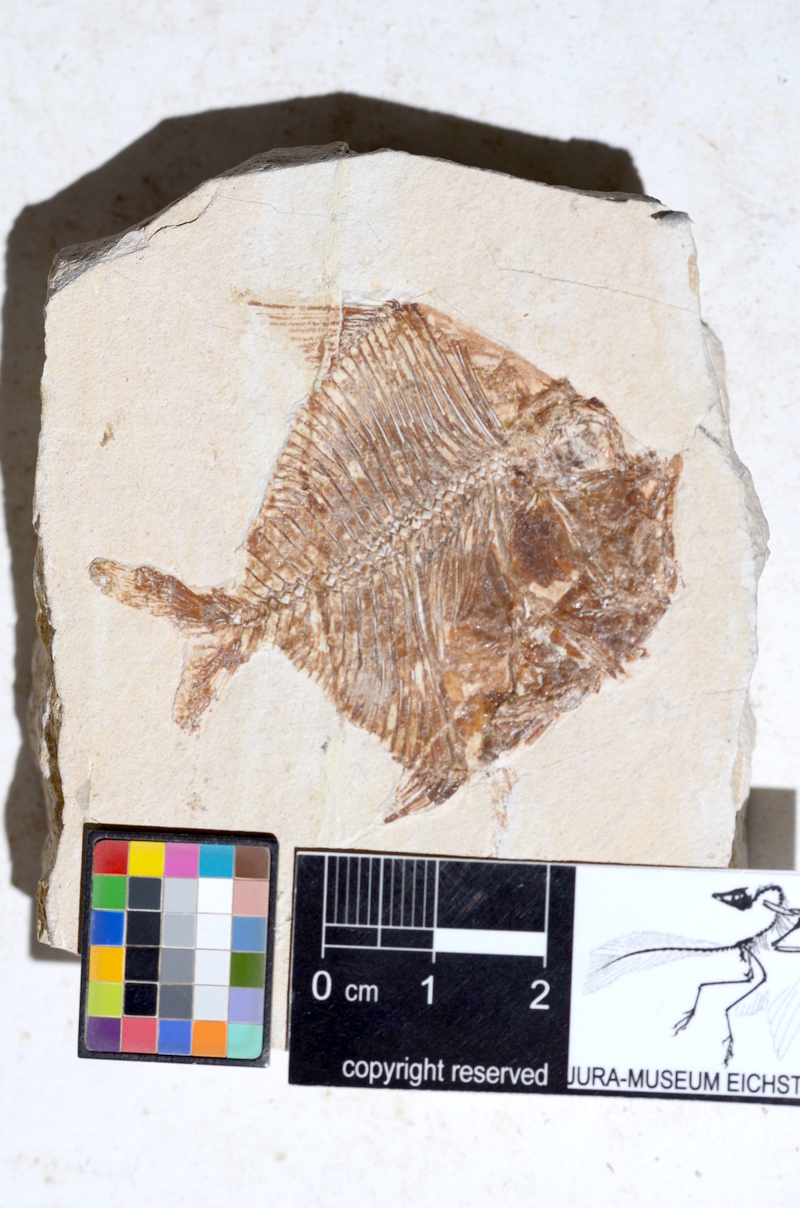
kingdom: Animalia
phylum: Chordata
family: Paraclupeidae
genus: Diplomystus
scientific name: Diplomystus
